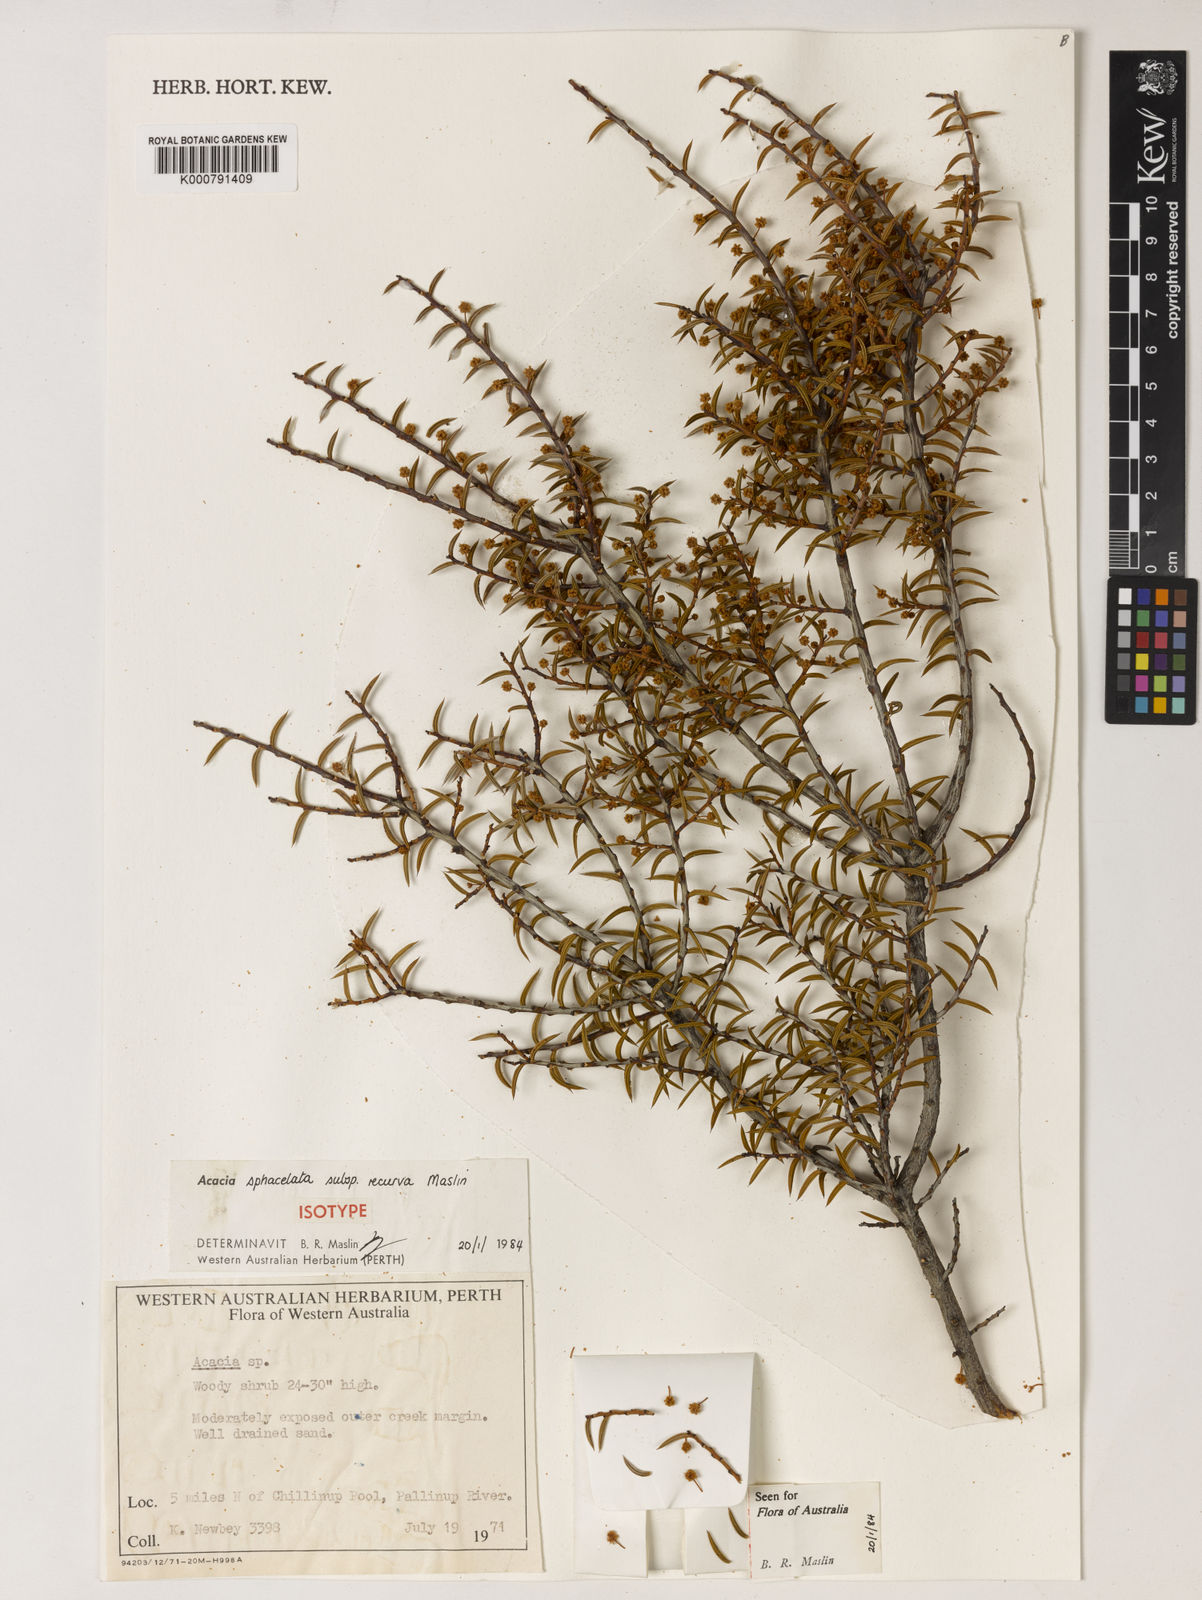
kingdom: Plantae
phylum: Tracheophyta
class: Magnoliopsida
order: Fabales
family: Fabaceae
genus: Acacia
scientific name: Acacia sphacelata
